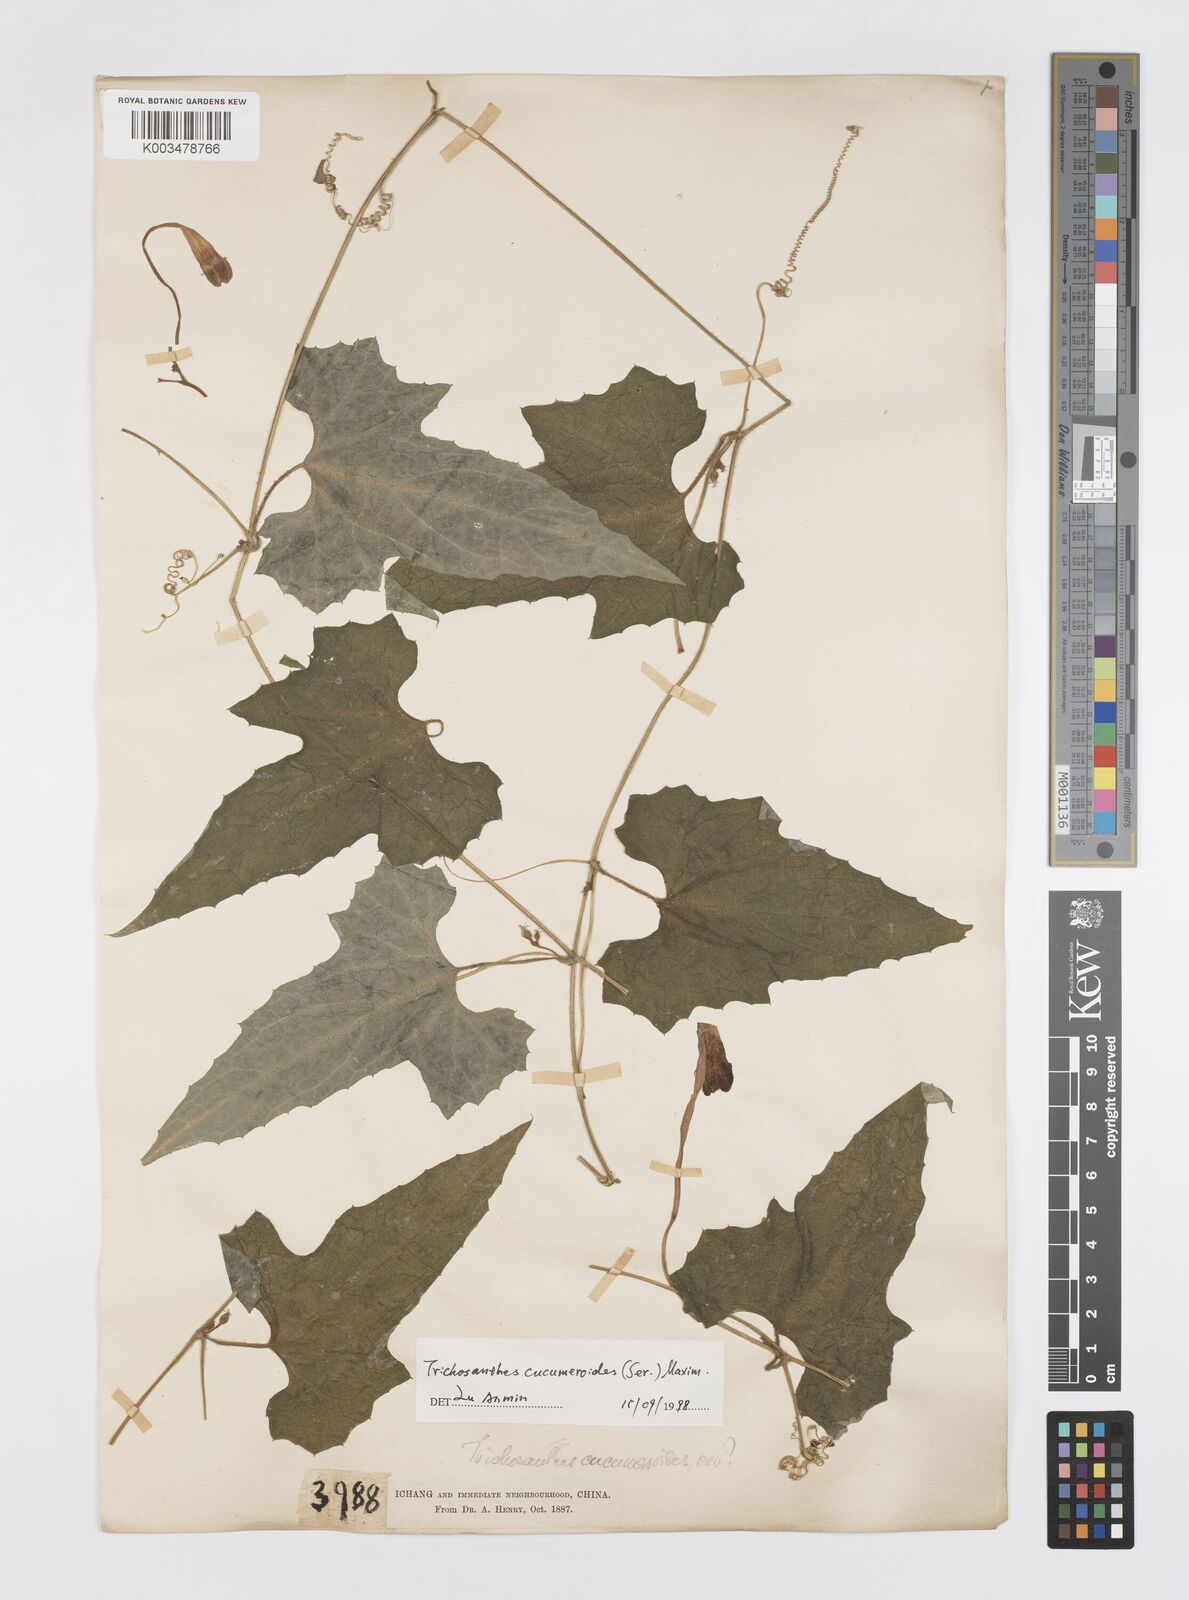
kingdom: Plantae
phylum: Tracheophyta
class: Magnoliopsida
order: Cucurbitales
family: Cucurbitaceae
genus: Trichosanthes
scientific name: Trichosanthes ovigera
